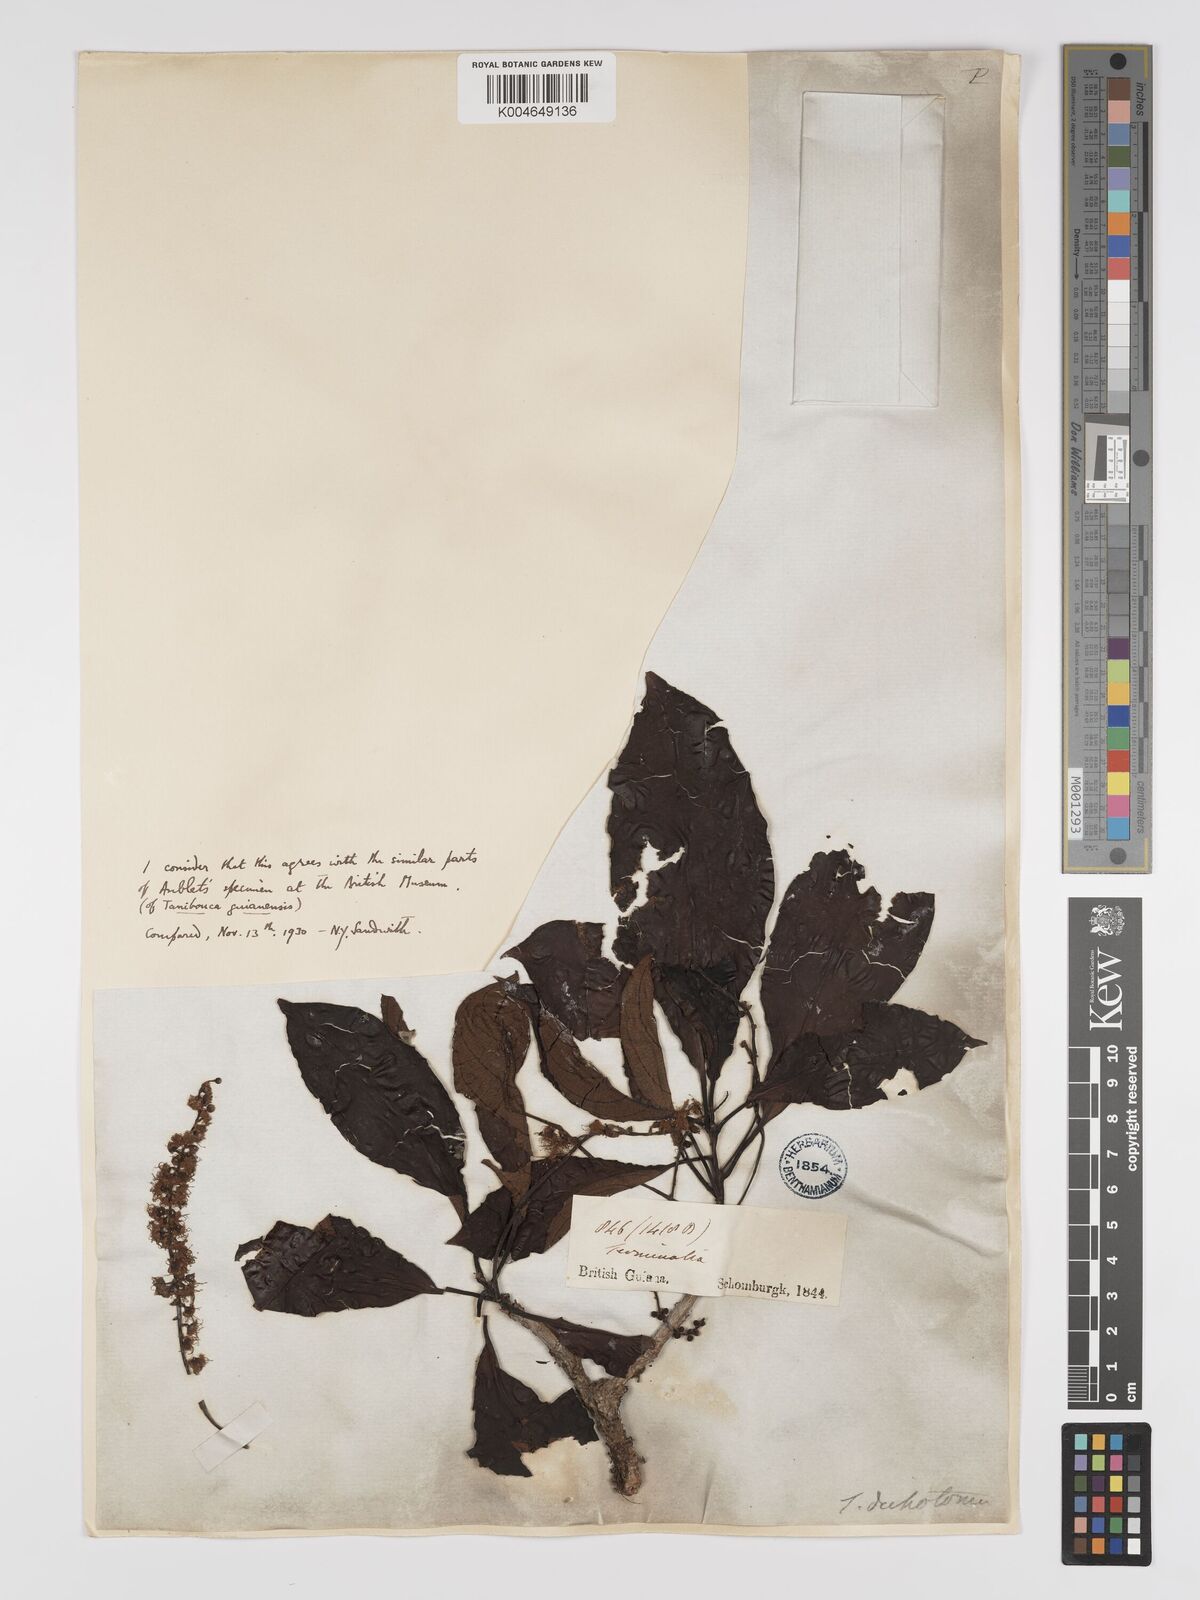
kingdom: Plantae
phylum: Tracheophyta
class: Magnoliopsida
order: Myrtales
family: Combretaceae
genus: Terminalia
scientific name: Terminalia dichotoma
